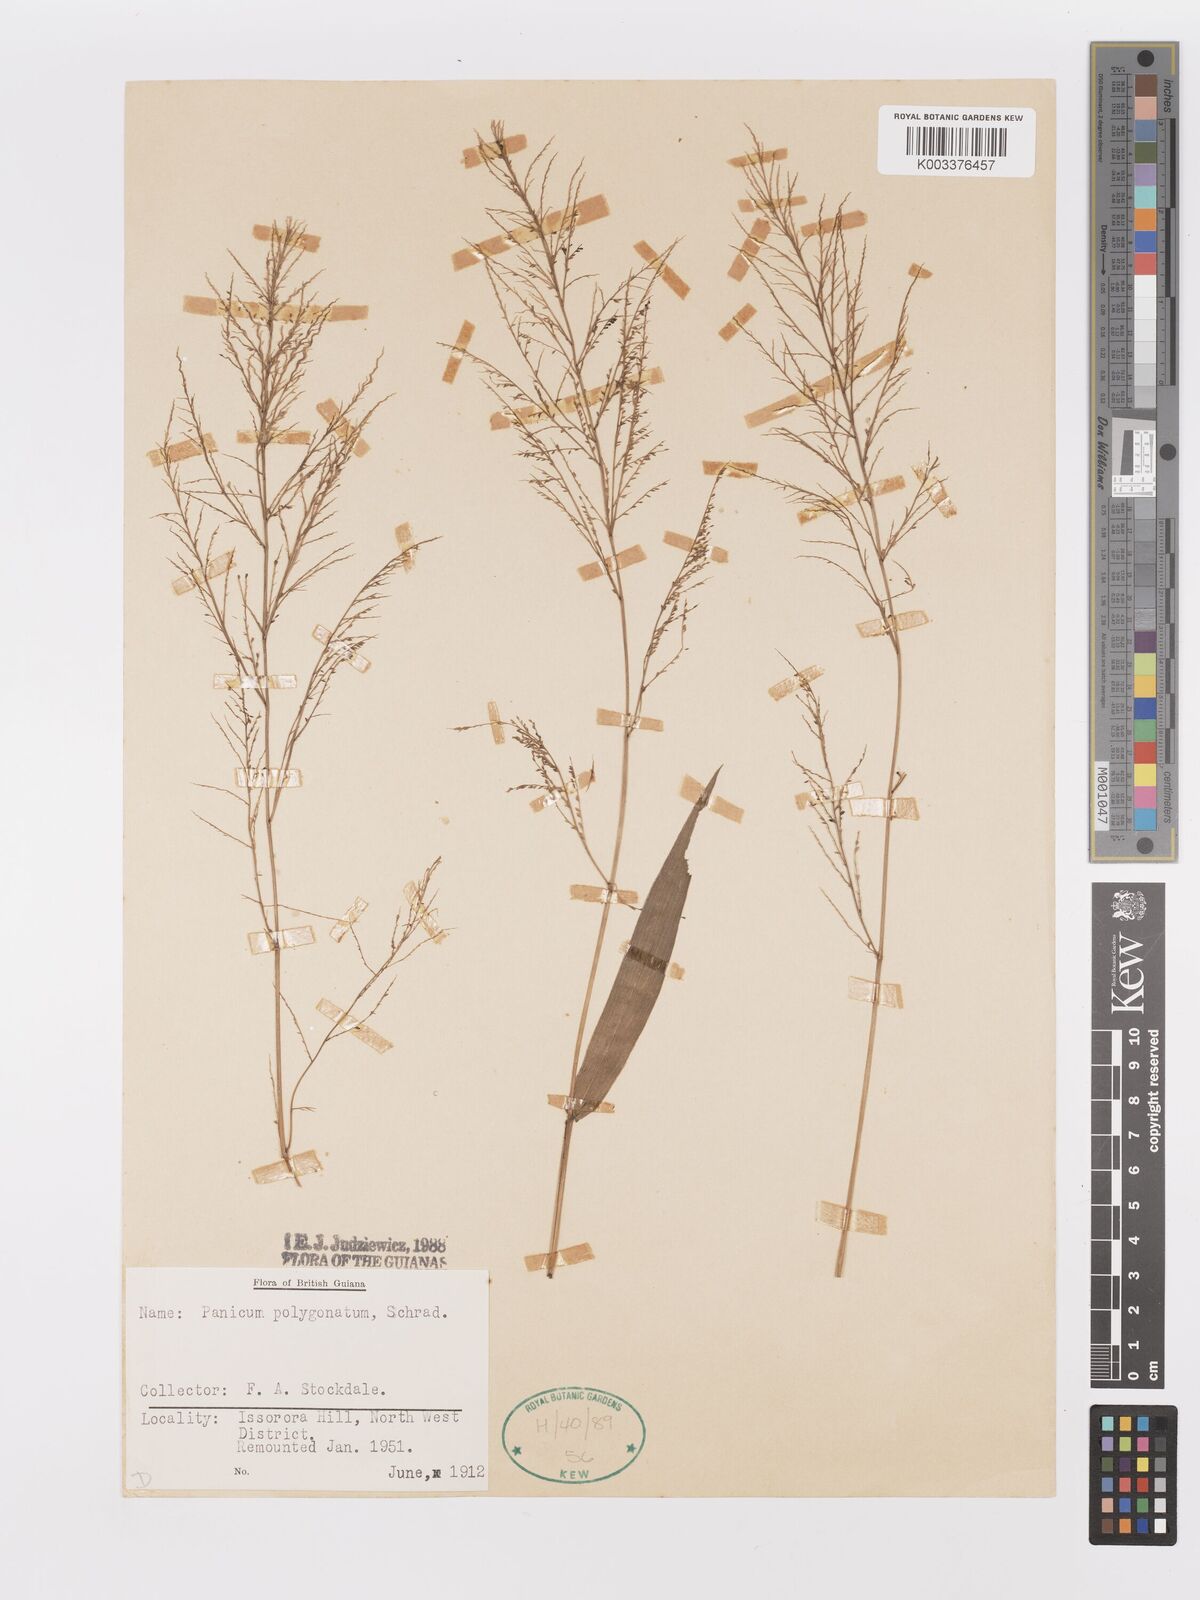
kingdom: Plantae
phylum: Tracheophyta
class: Liliopsida
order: Poales
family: Poaceae
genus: Rugoloa
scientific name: Rugoloa polygonata
